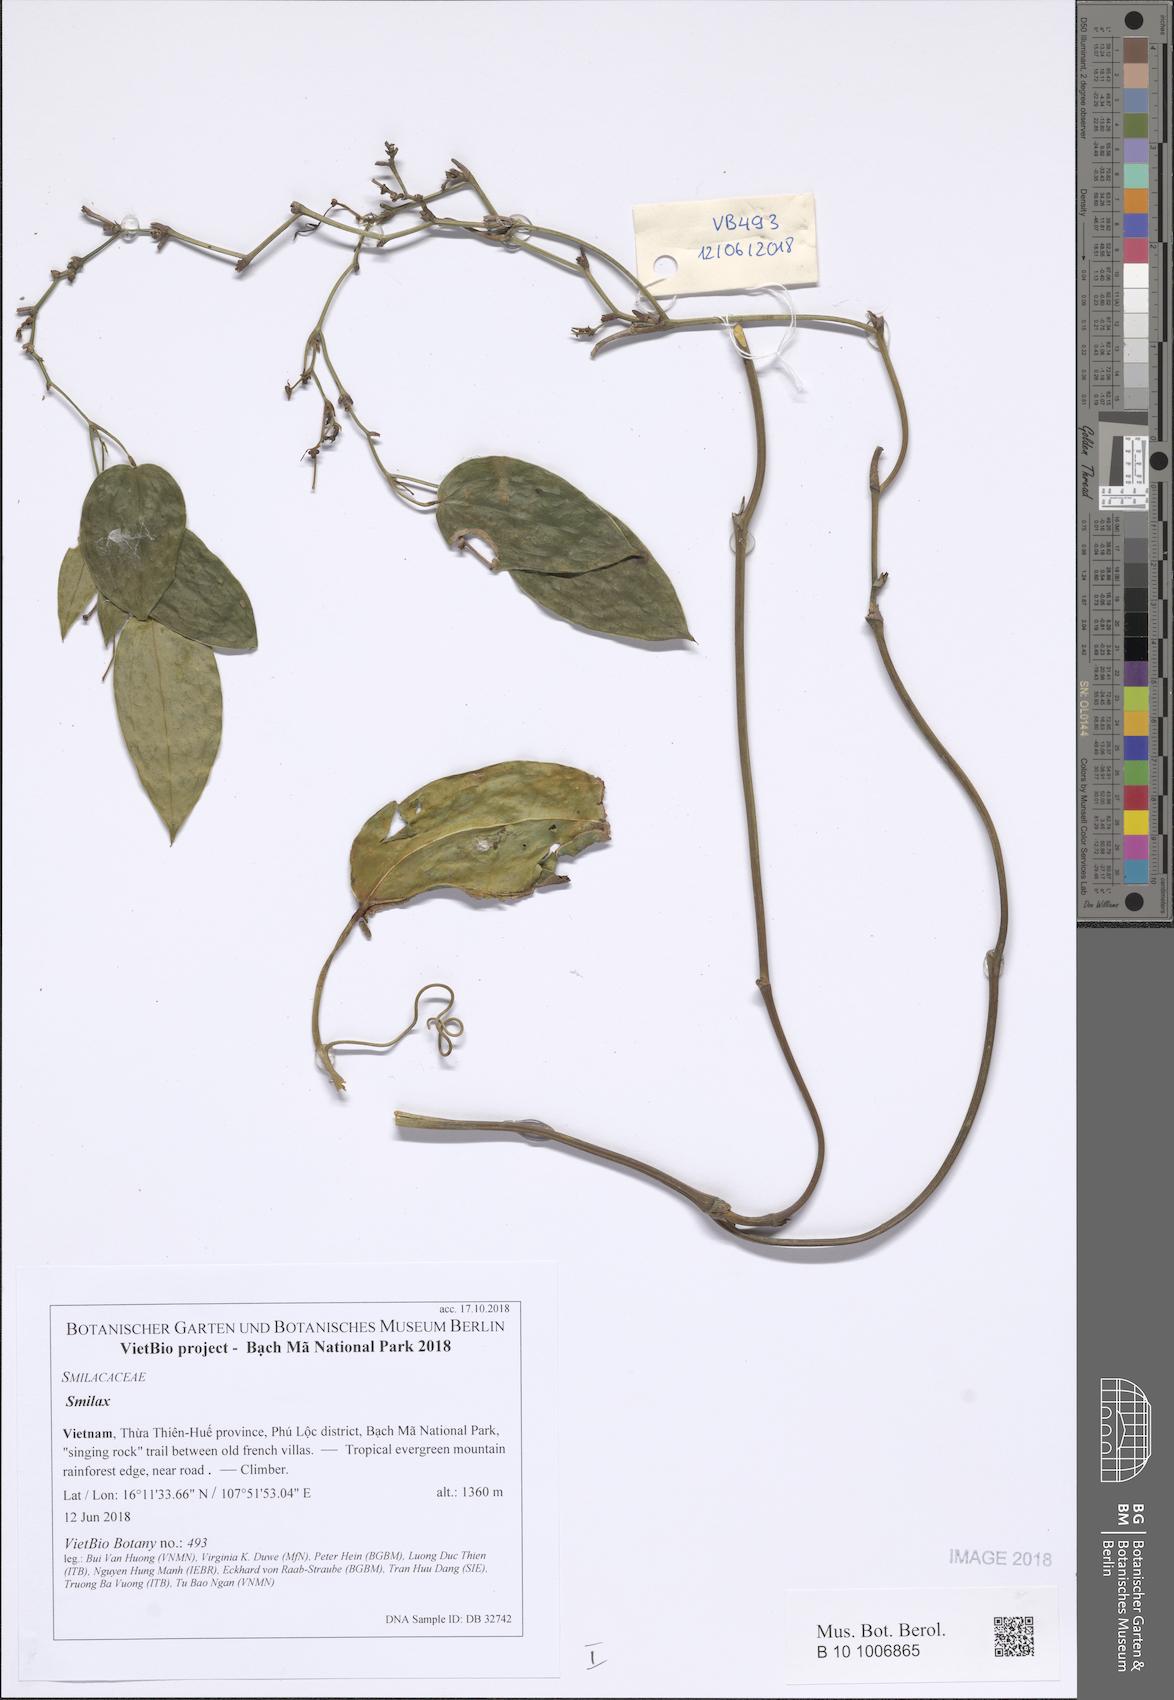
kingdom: Plantae
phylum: Tracheophyta
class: Liliopsida
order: Liliales
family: Smilacaceae
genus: Smilax
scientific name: Smilax
